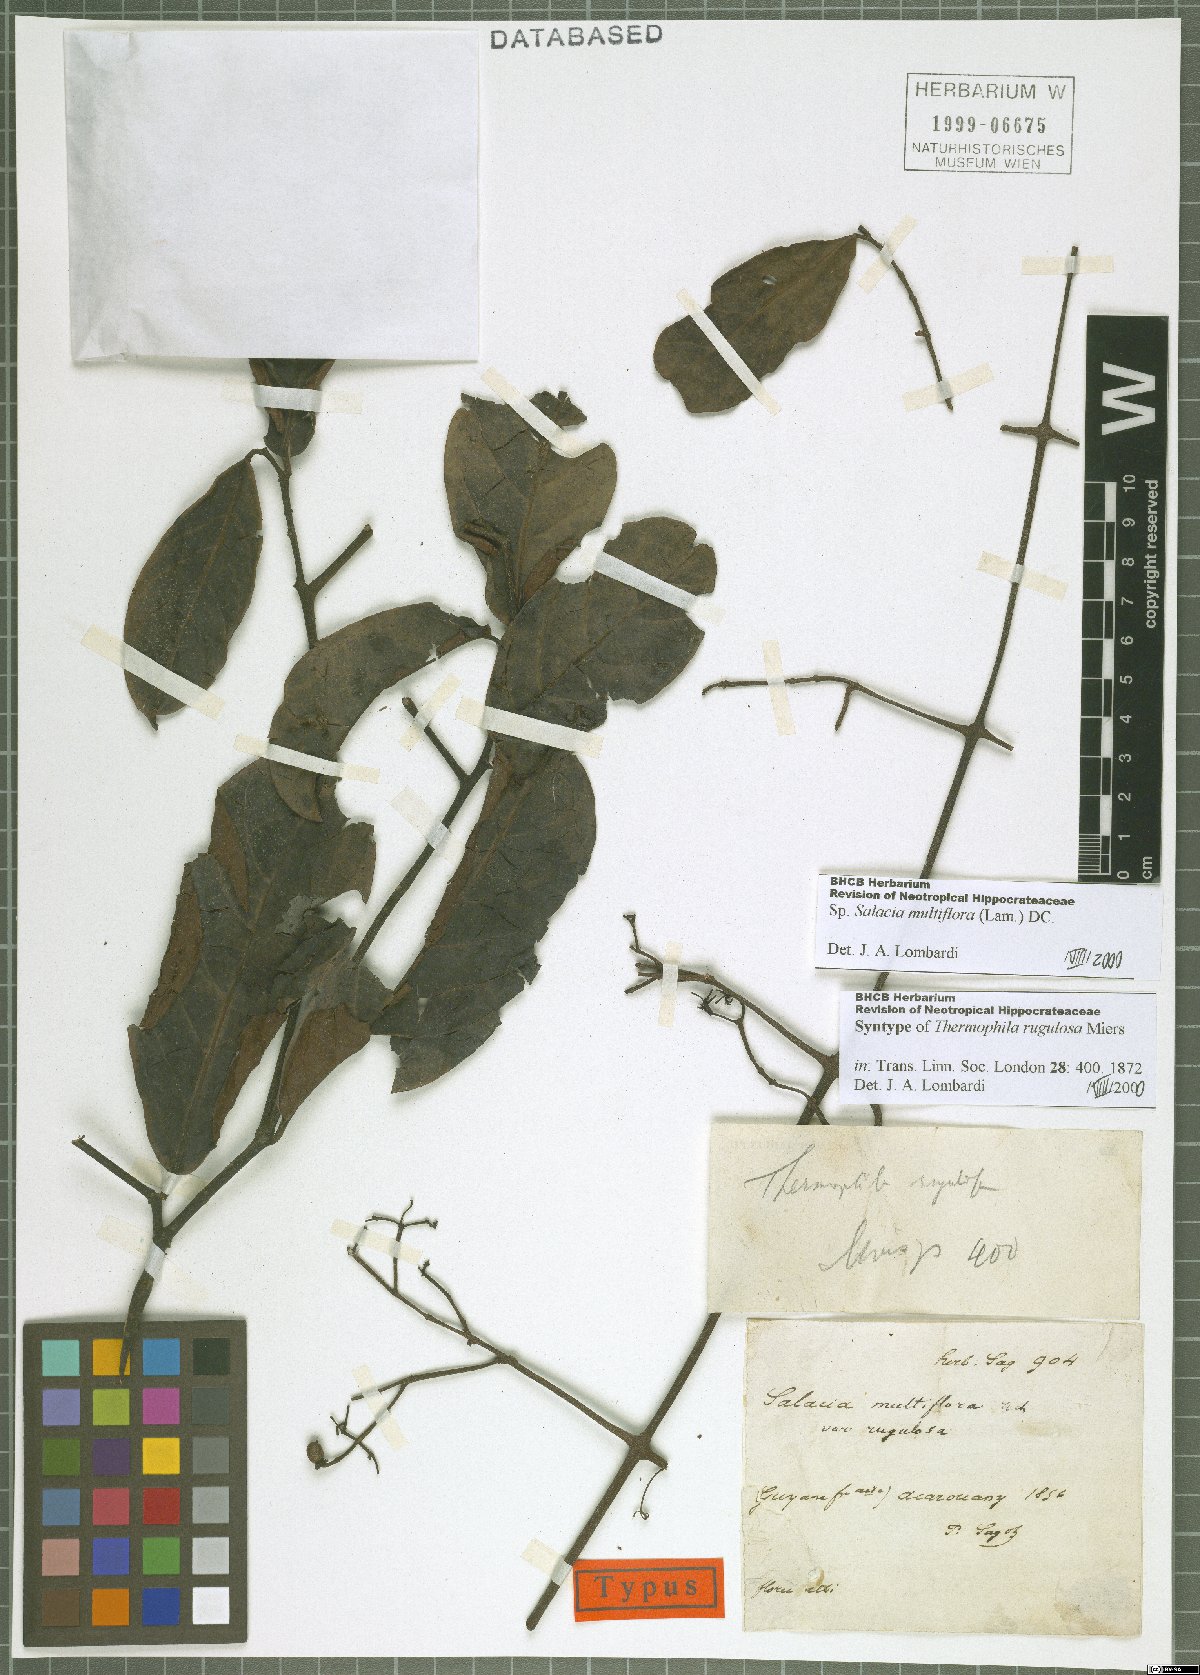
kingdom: Plantae
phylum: Tracheophyta
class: Magnoliopsida
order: Celastrales
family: Celastraceae
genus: Salacia
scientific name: Salacia multiflora
